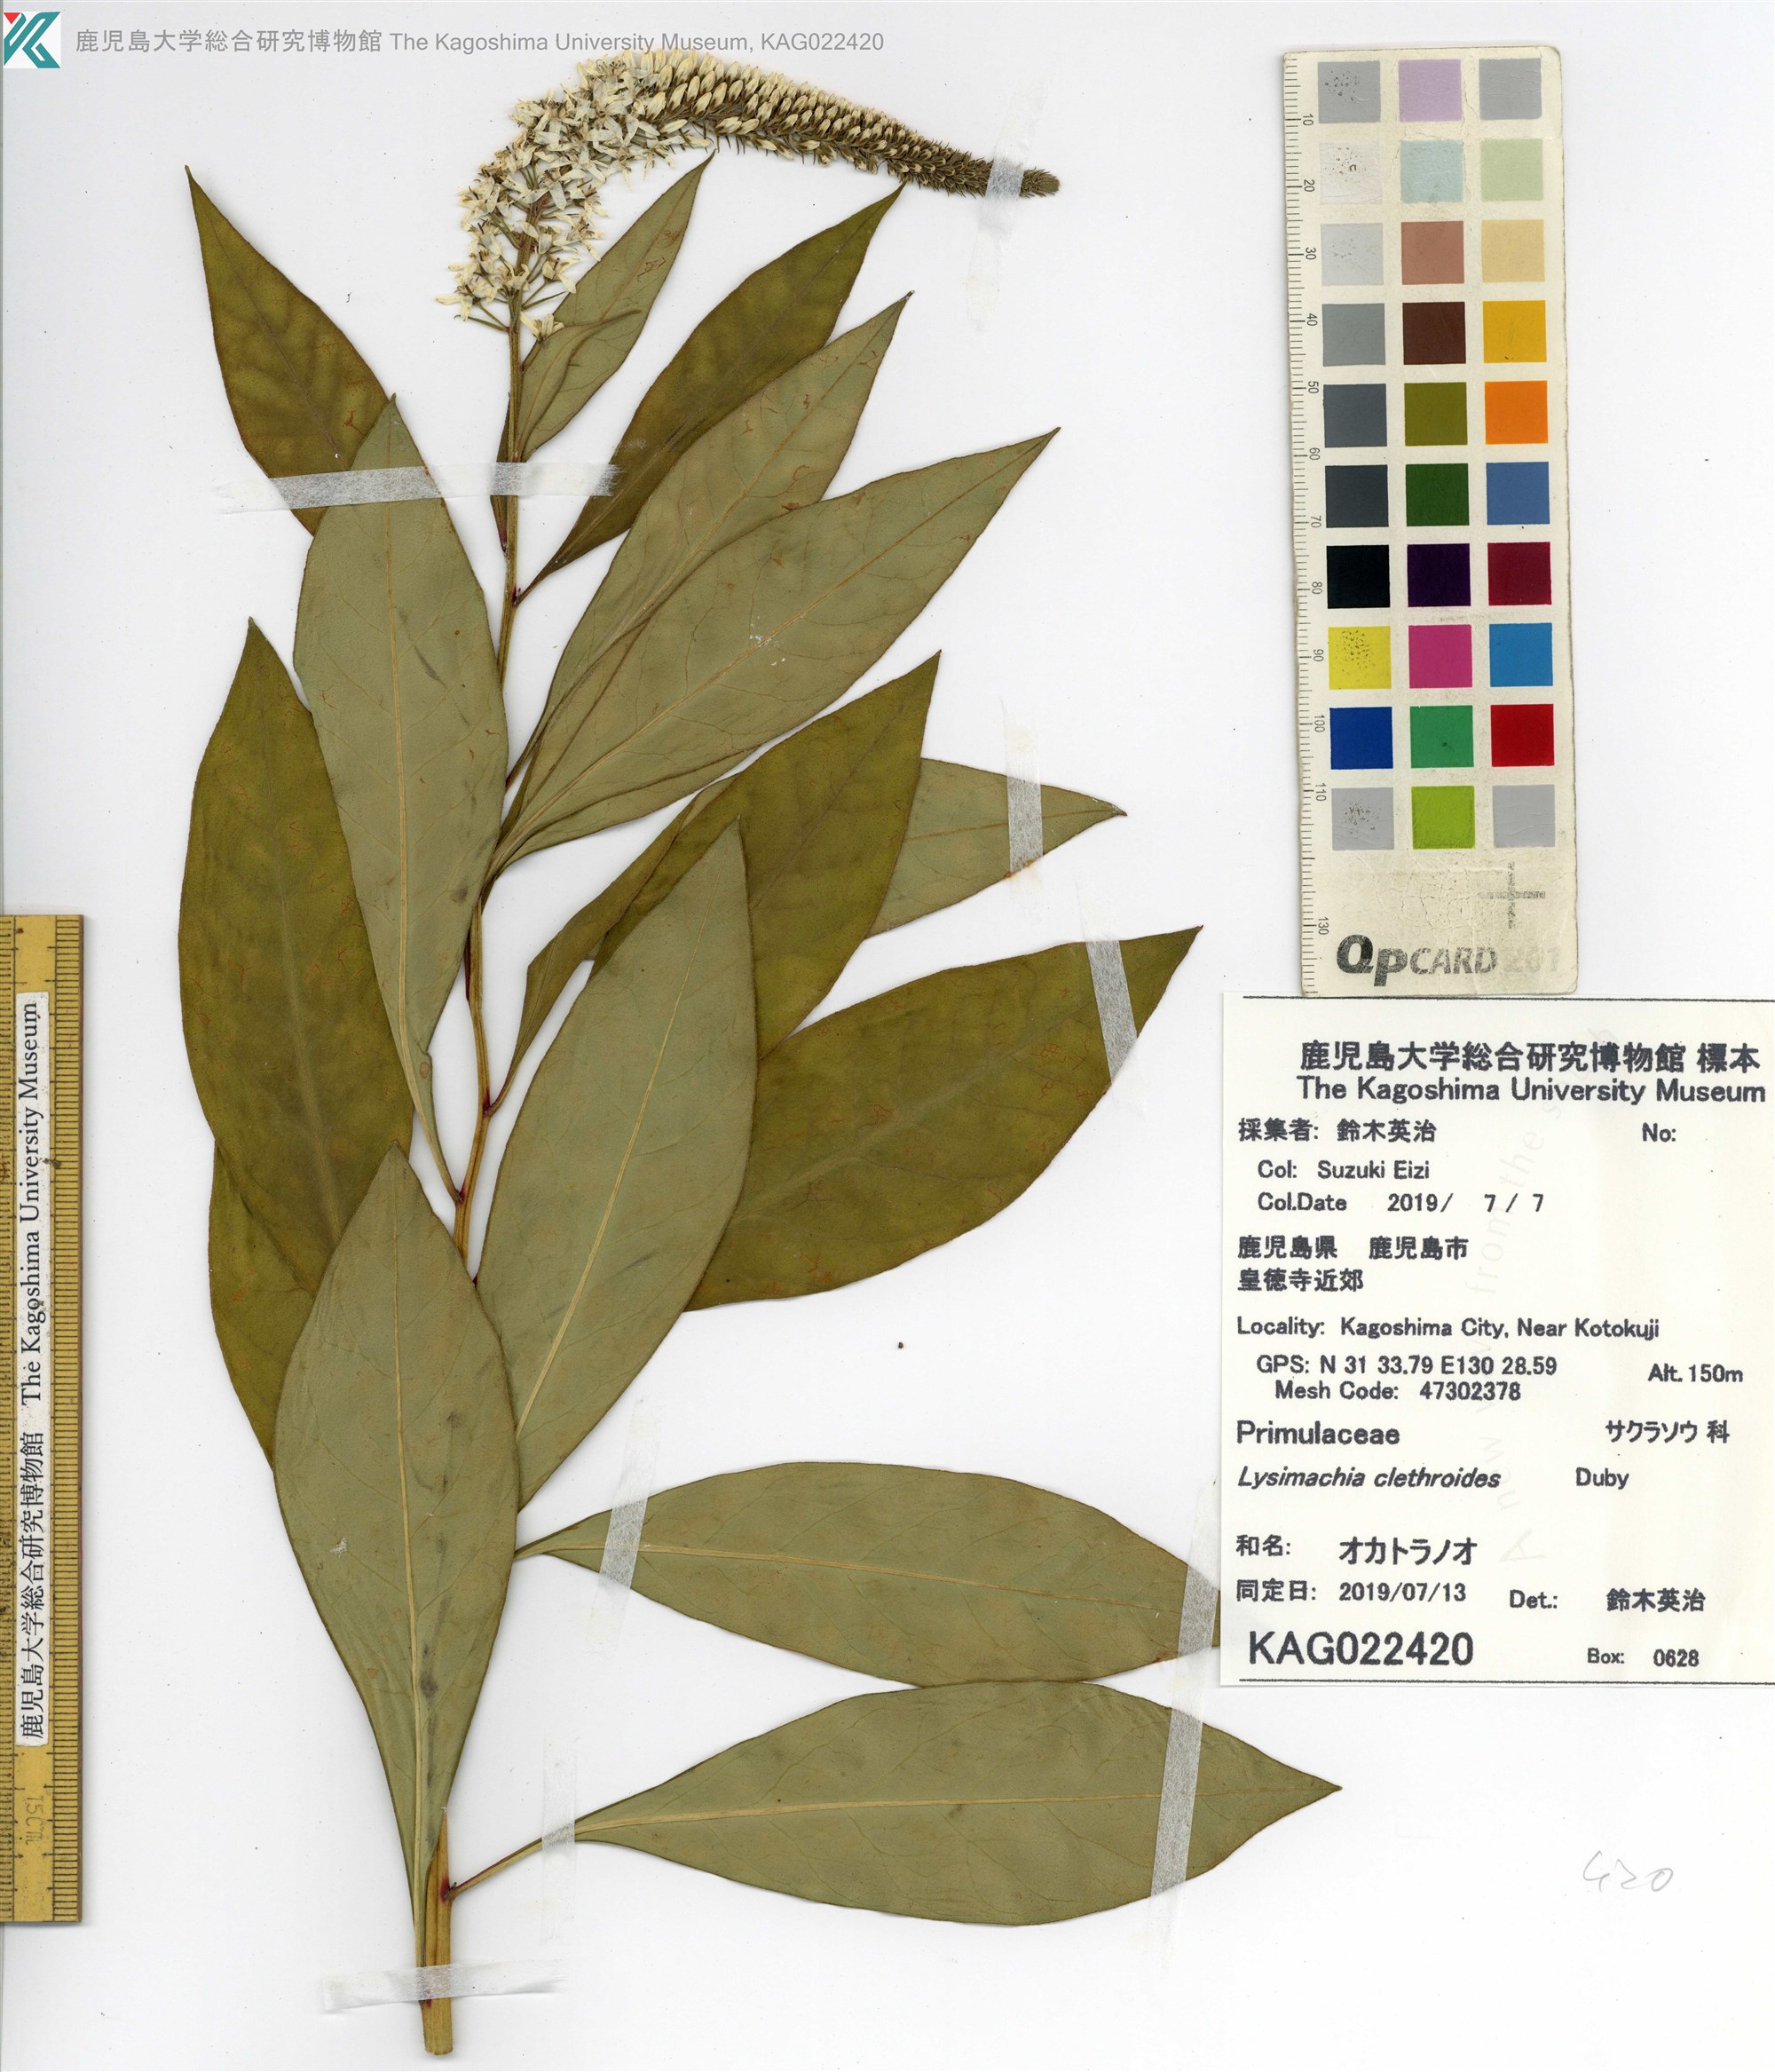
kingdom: Plantae
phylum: Tracheophyta
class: Magnoliopsida
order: Ericales
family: Primulaceae
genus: Lysimachia
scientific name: Lysimachia clethroides
